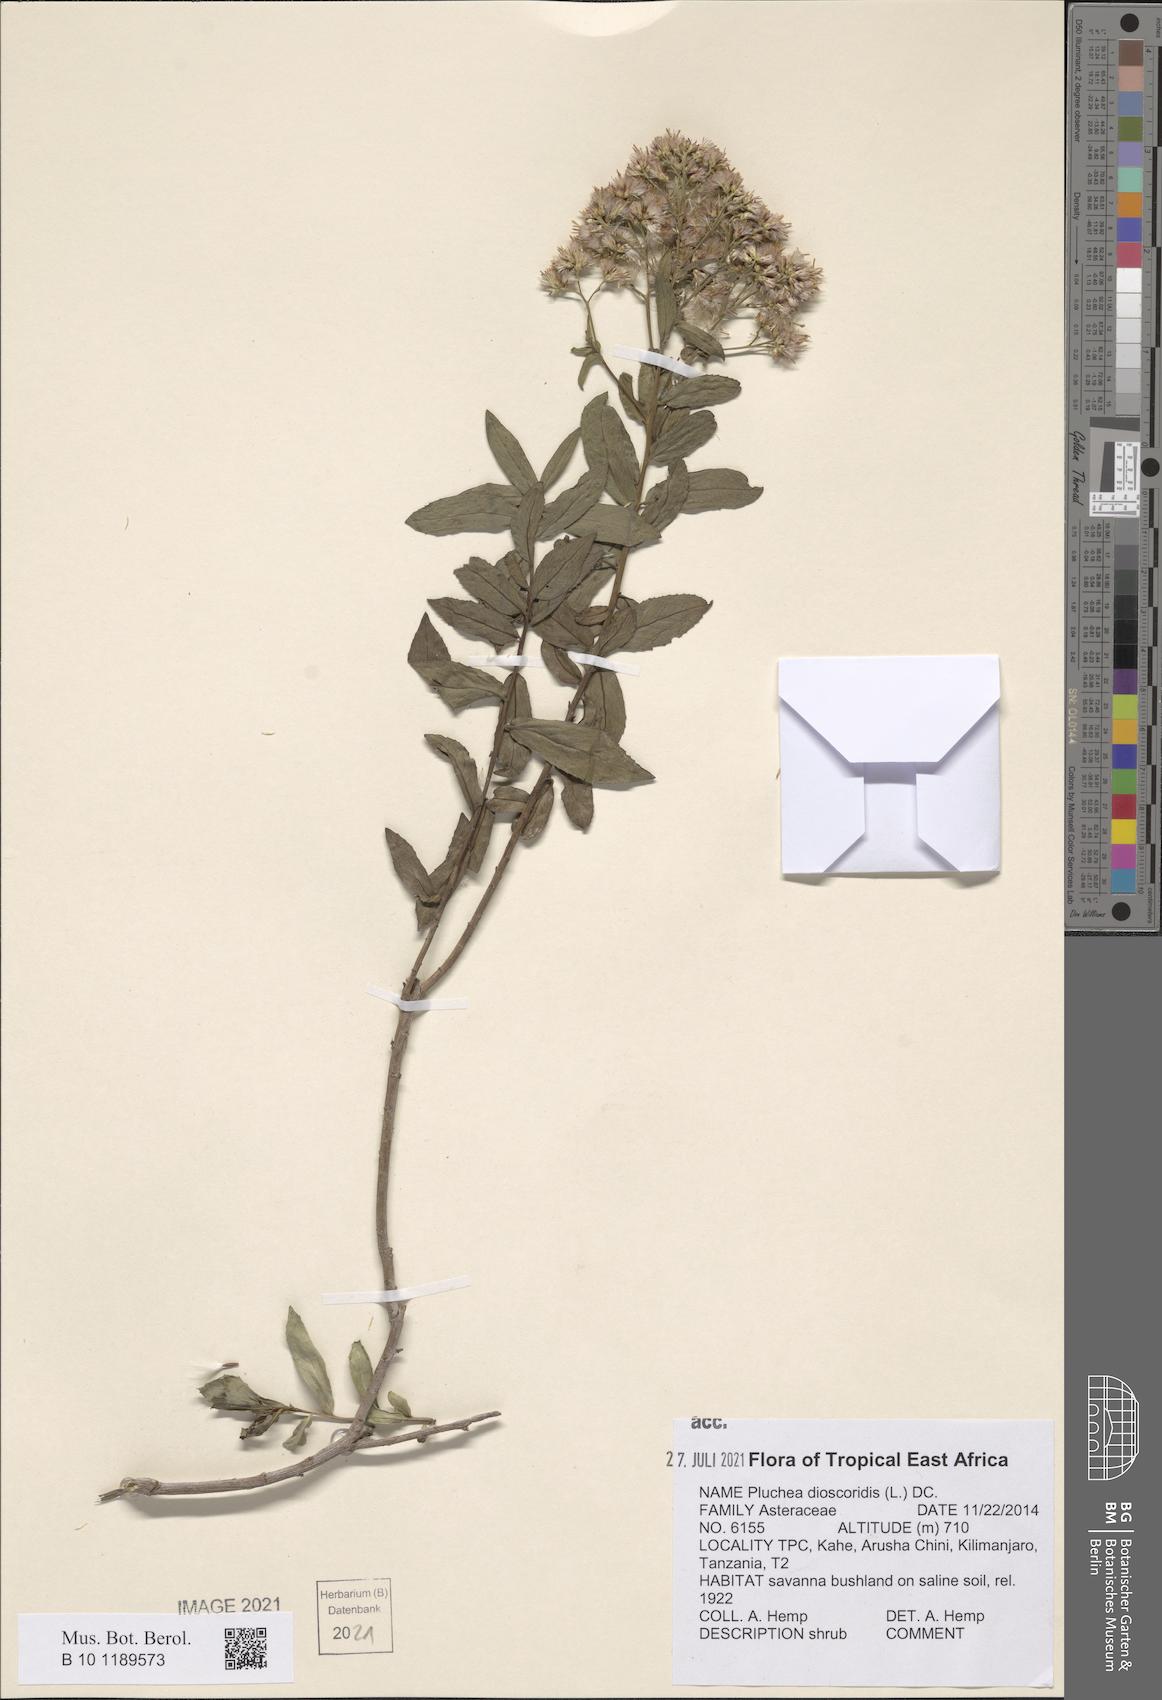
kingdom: Plantae
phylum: Tracheophyta
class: Magnoliopsida
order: Asterales
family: Asteraceae
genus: Pluchea
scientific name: Pluchea dioscoridis
